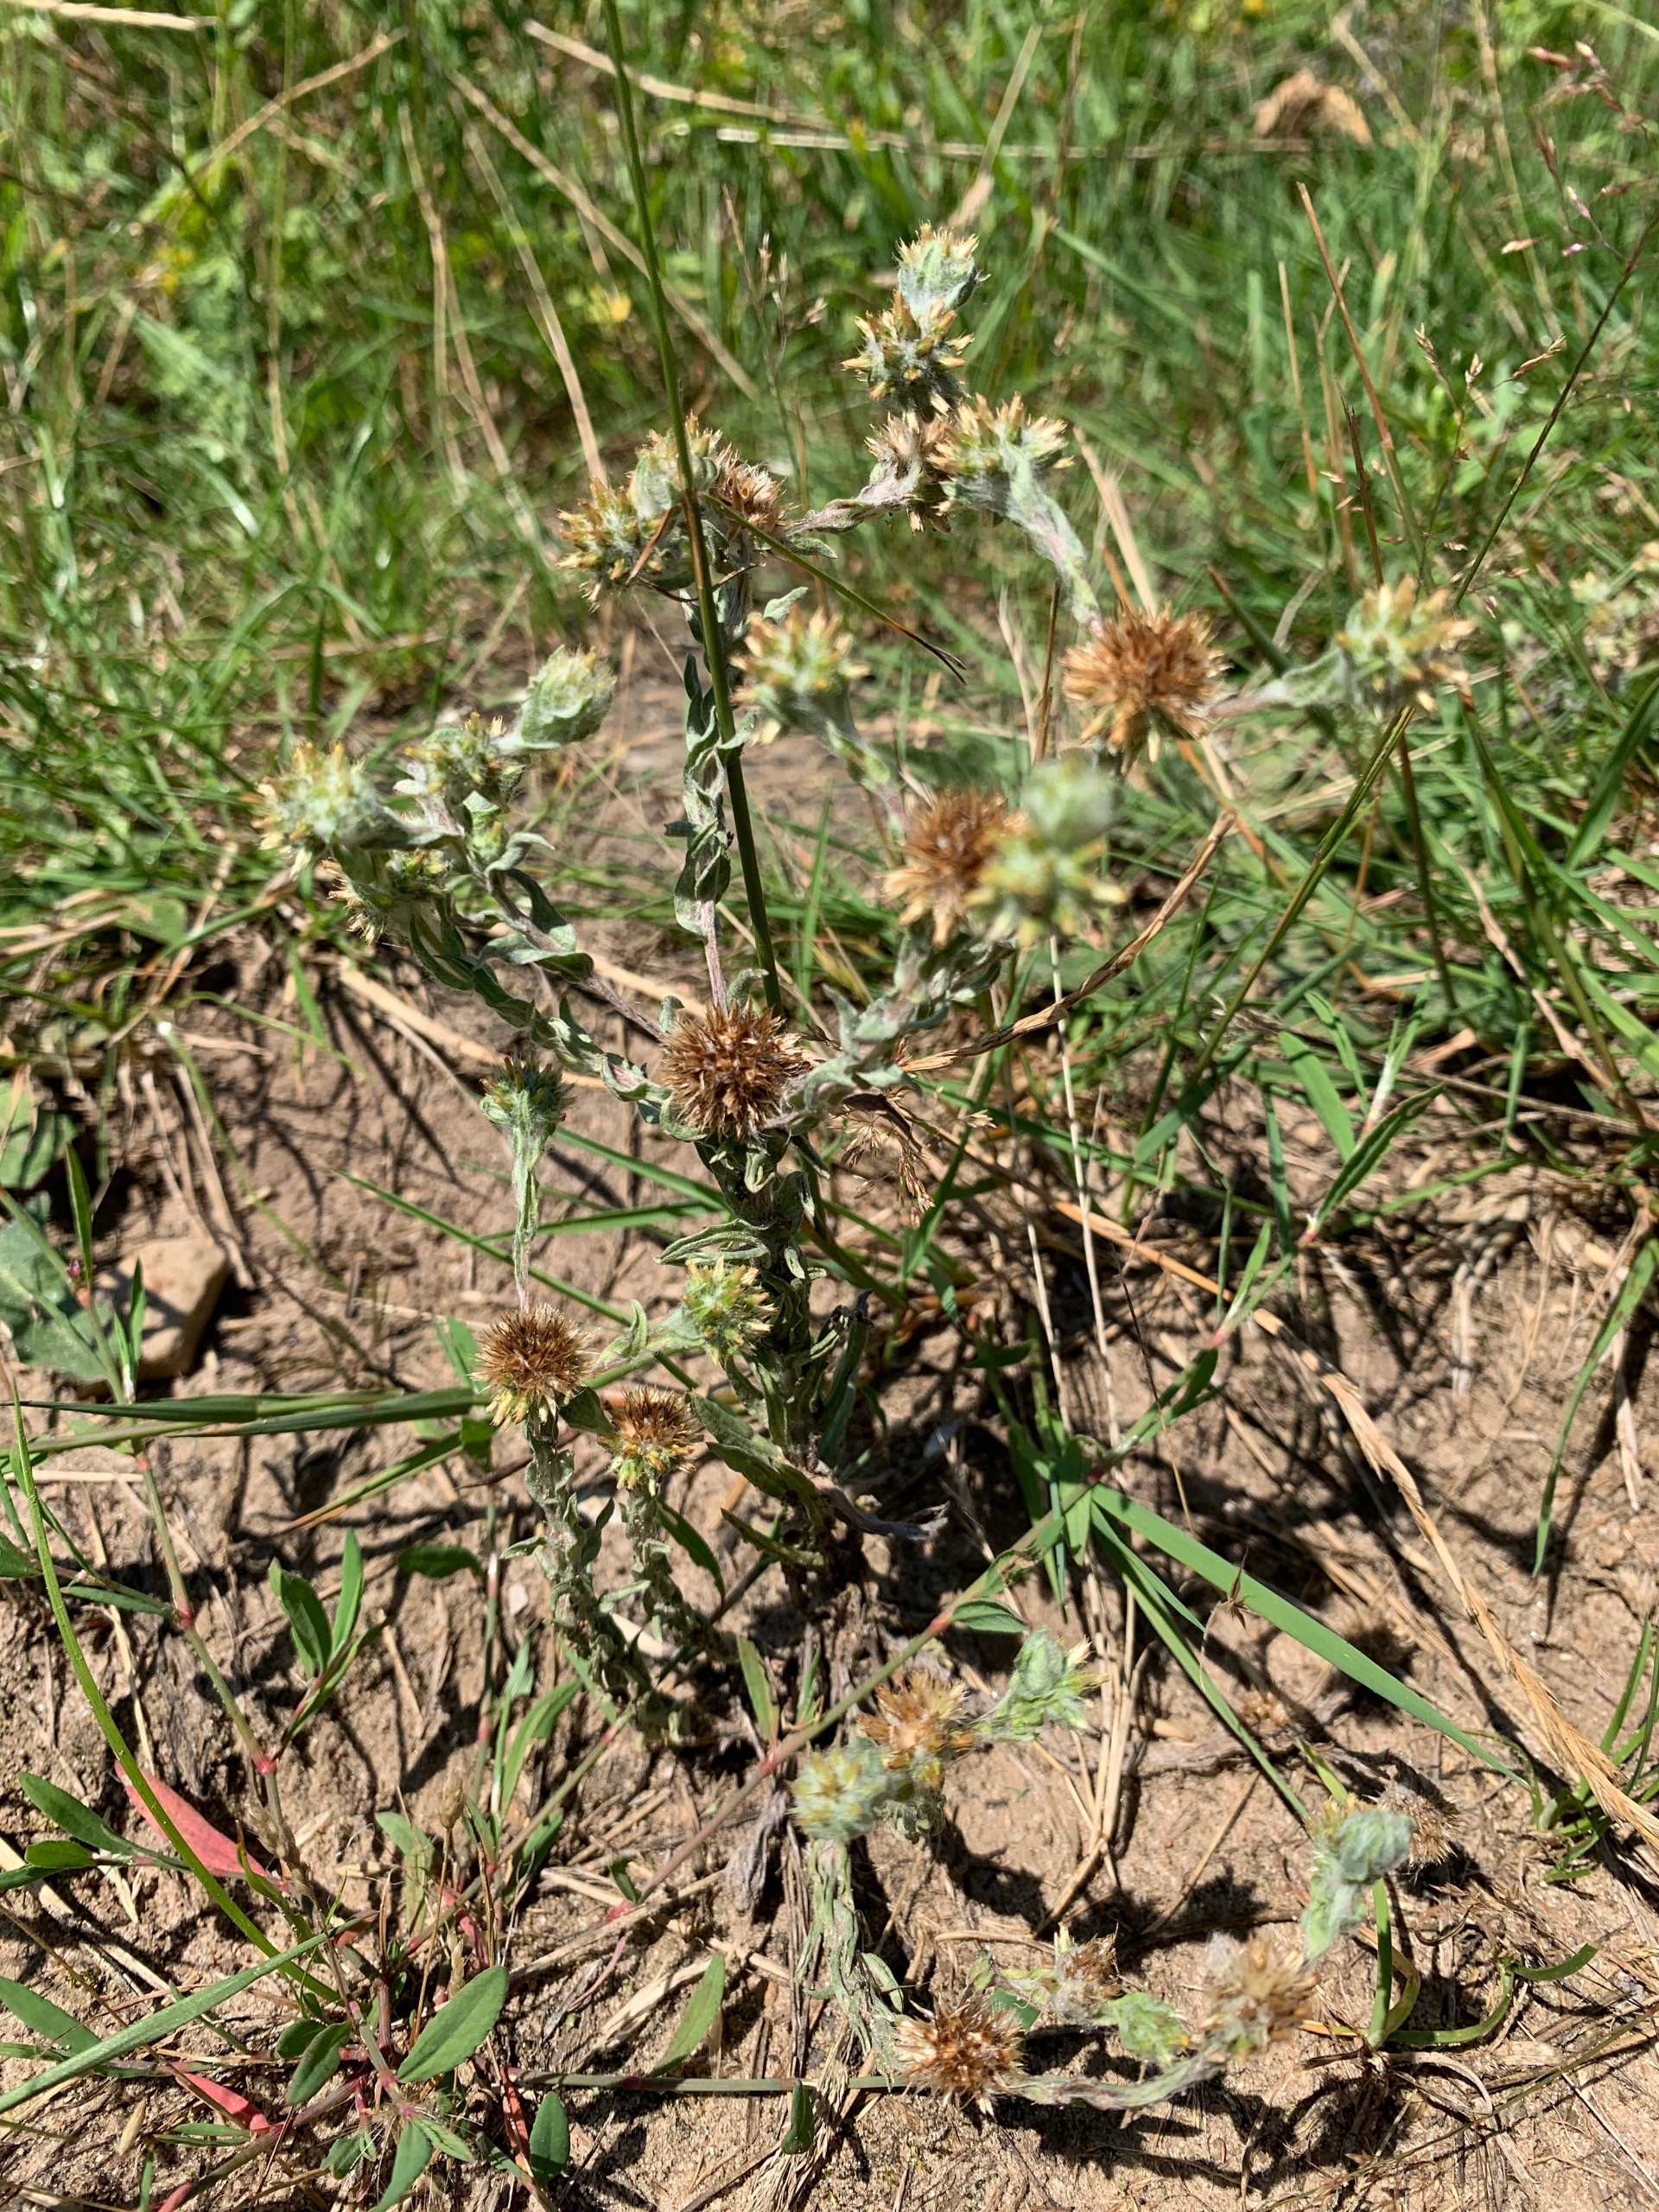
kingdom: Plantae
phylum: Tracheophyta
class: Magnoliopsida
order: Asterales
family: Asteraceae
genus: Filago
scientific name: Filago germanica
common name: Kugle-museurt
